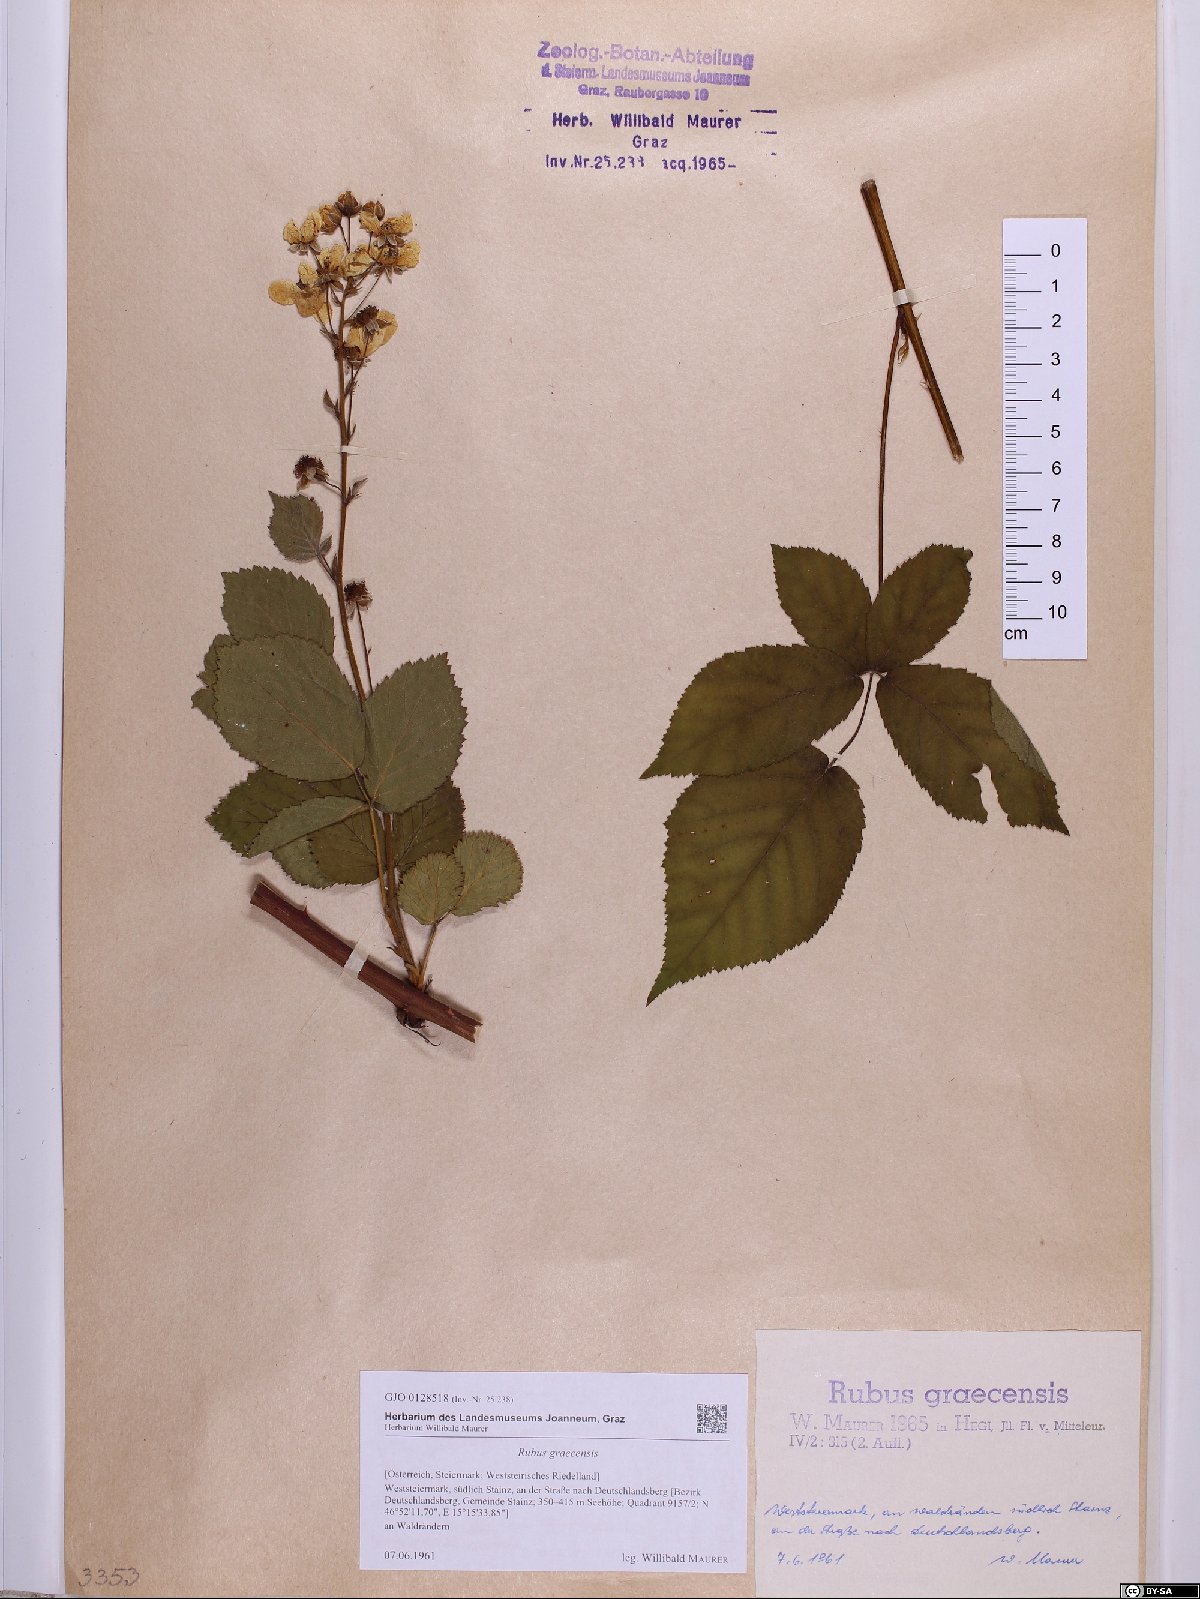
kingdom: Plantae
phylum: Tracheophyta
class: Magnoliopsida
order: Rosales
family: Rosaceae
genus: Rubus
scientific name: Rubus graecensis
